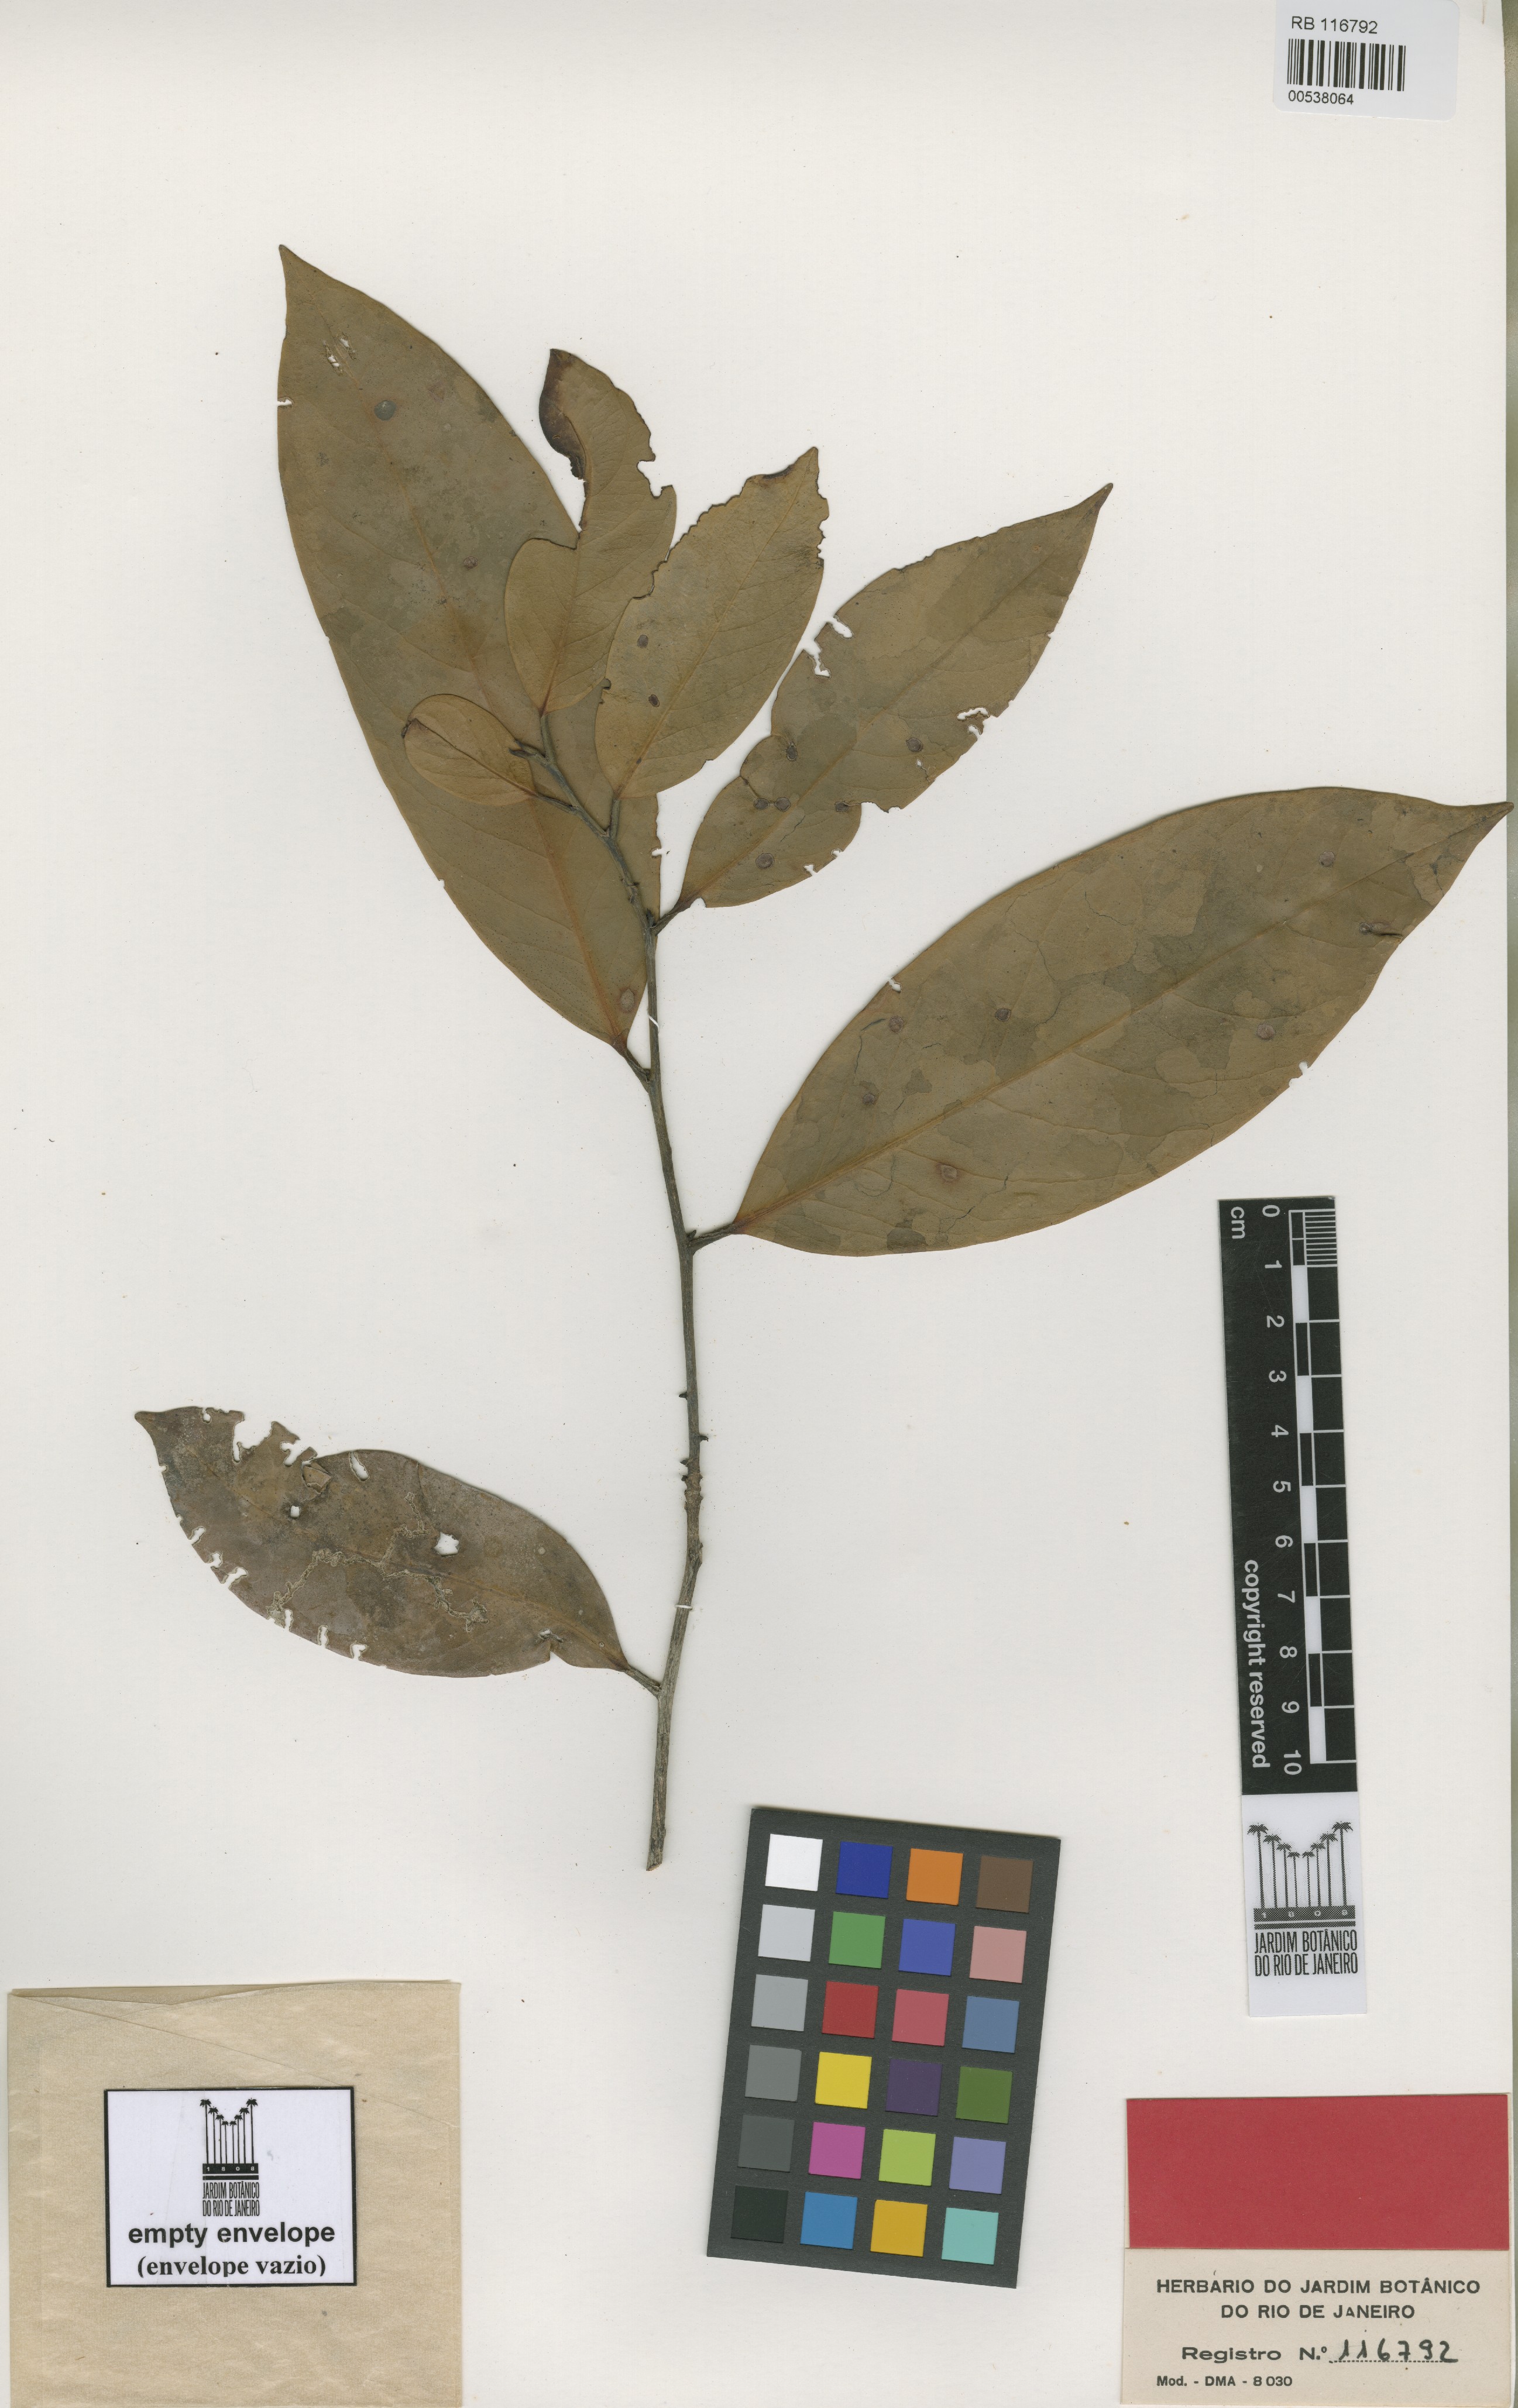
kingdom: Plantae
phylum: Tracheophyta
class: Magnoliopsida
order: Celastrales
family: Celastraceae
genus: Goniodiscus
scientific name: Goniodiscus elaeospermus
